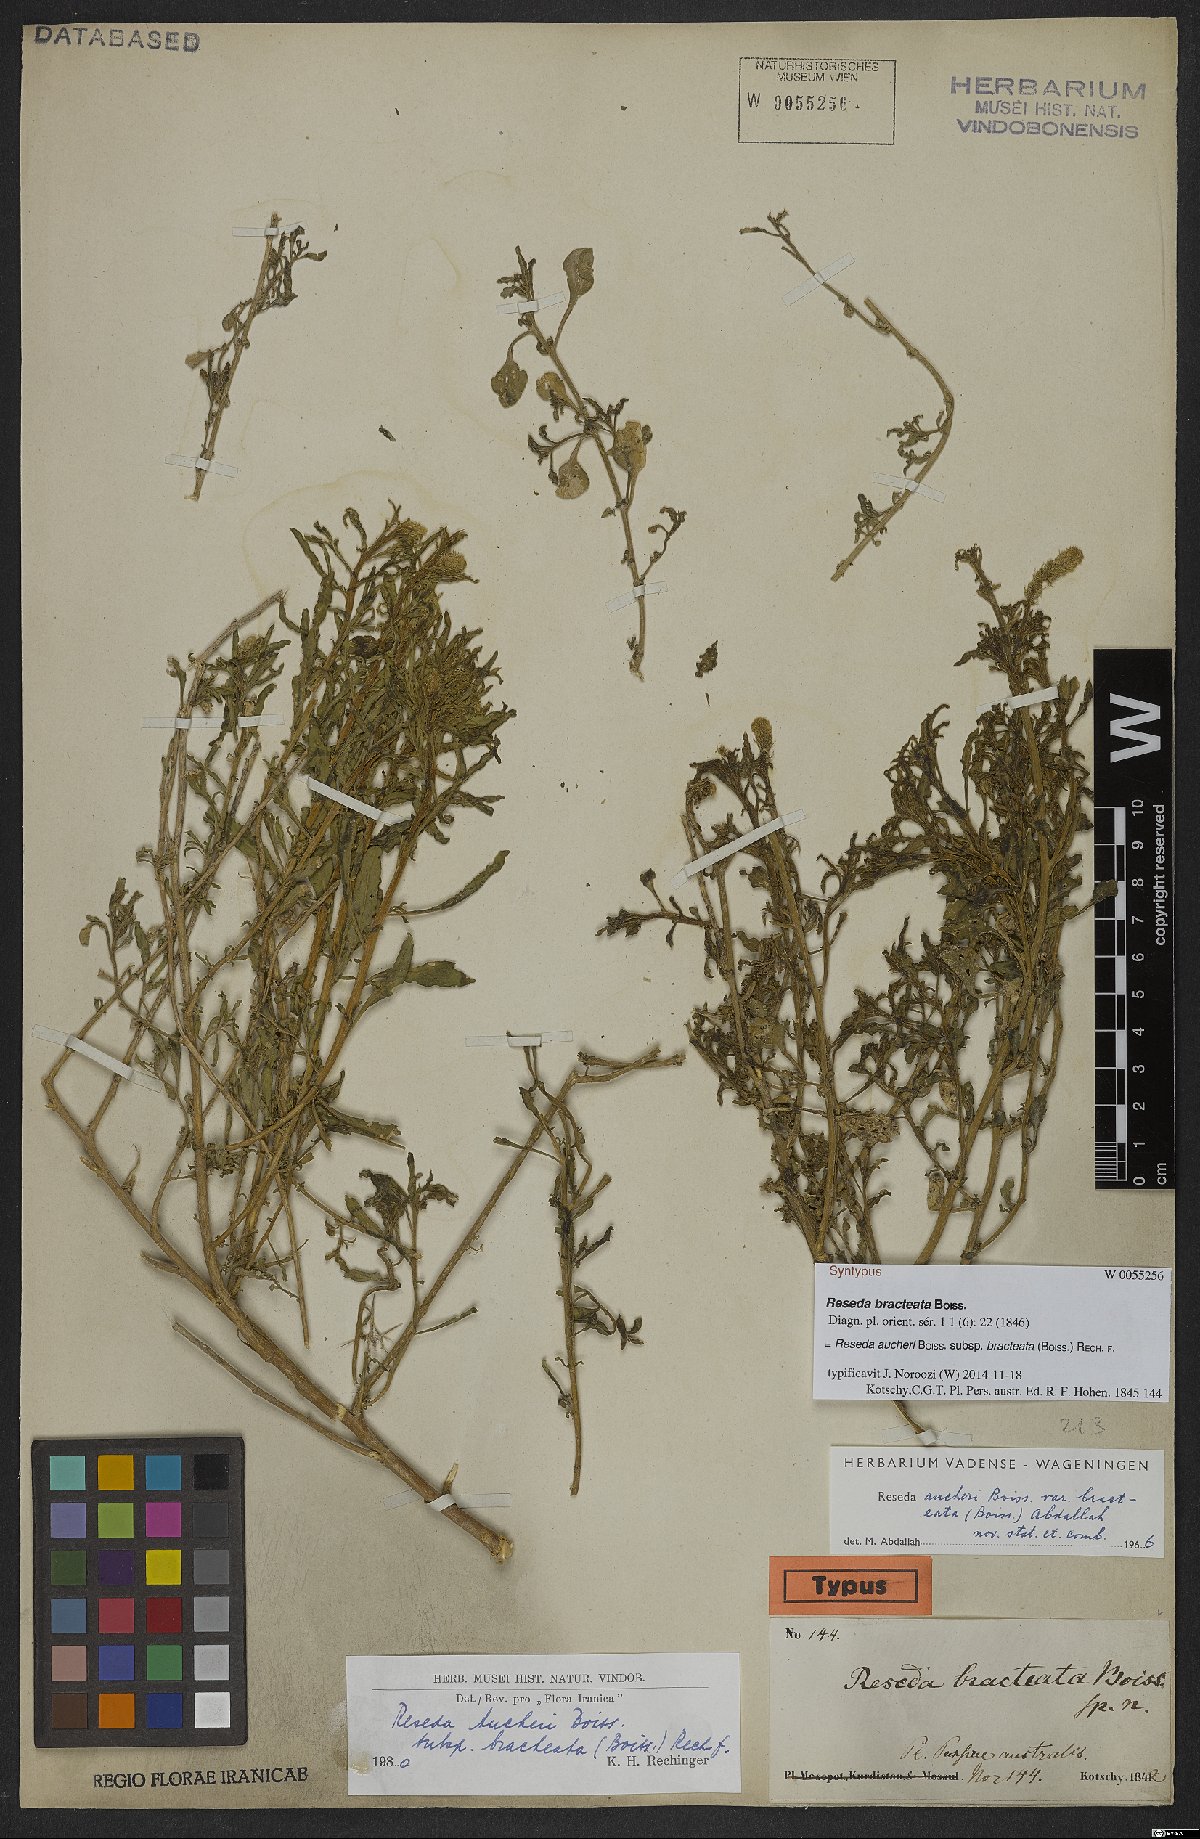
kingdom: Plantae
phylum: Tracheophyta
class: Magnoliopsida
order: Brassicales
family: Resedaceae
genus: Reseda
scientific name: Reseda aucheri
